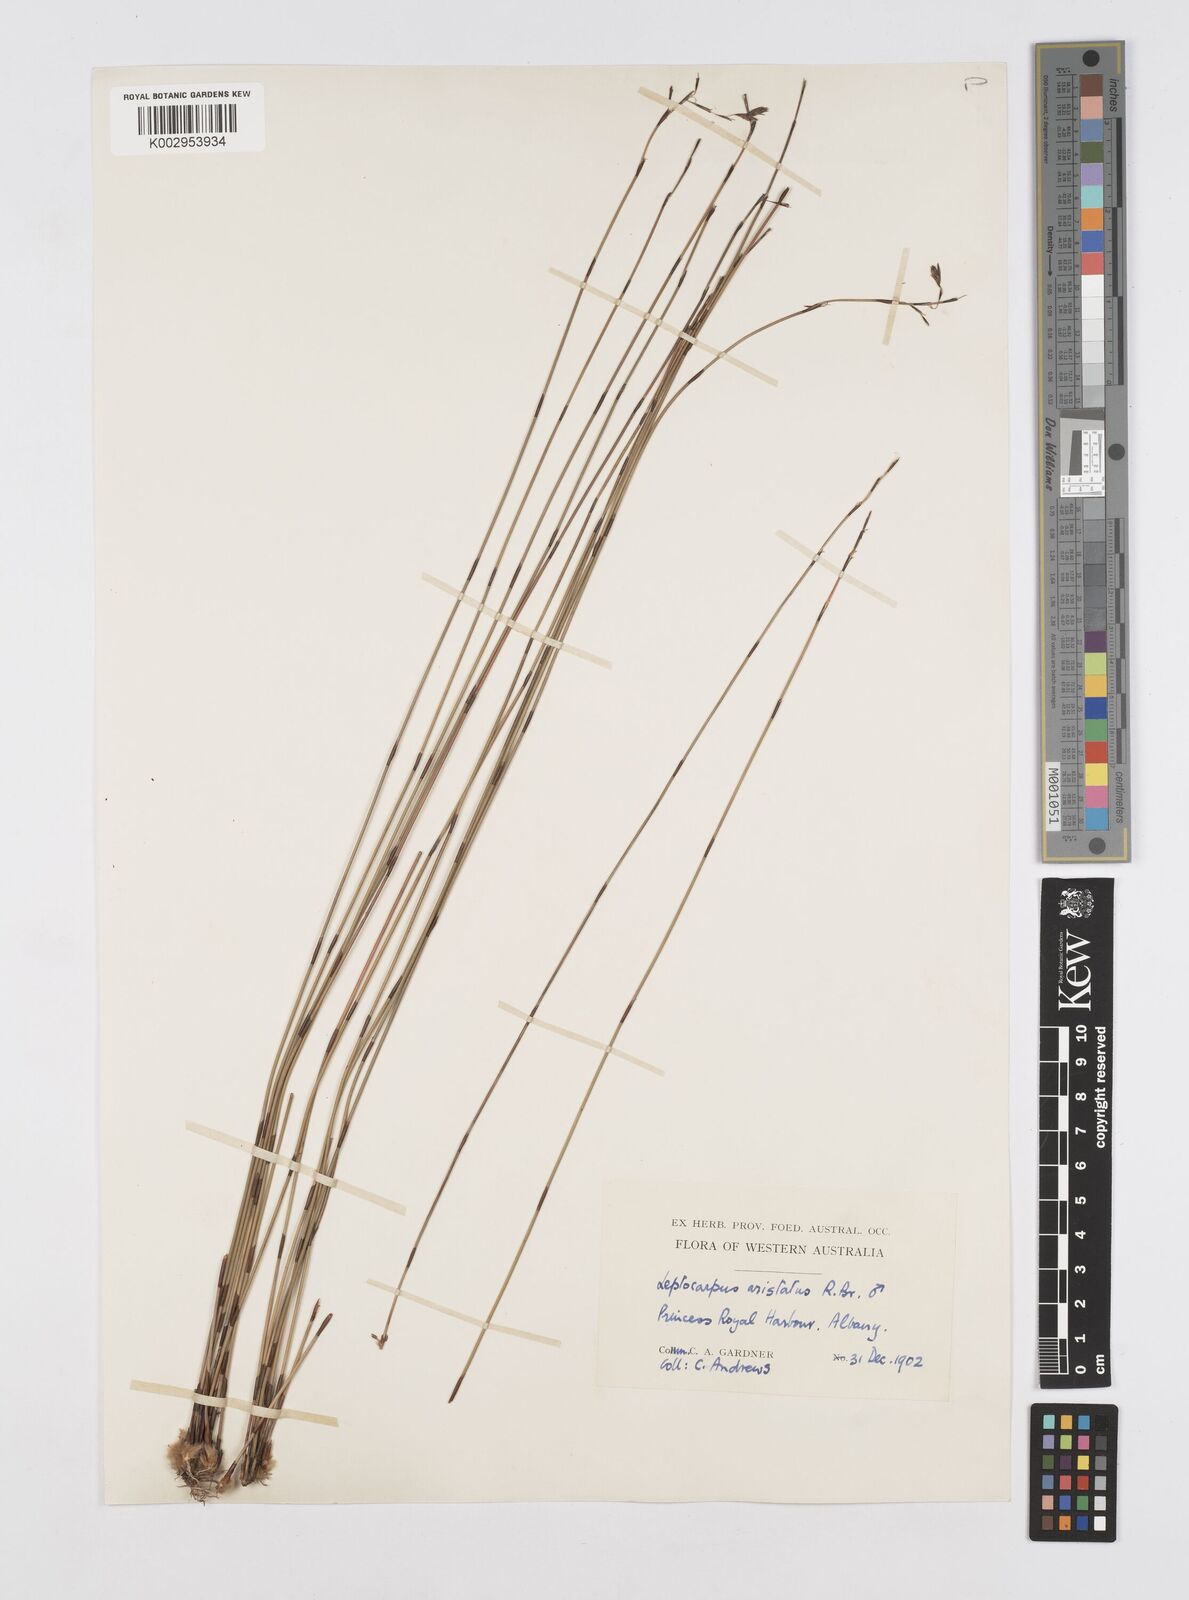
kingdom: Plantae
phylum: Tracheophyta
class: Liliopsida
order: Poales
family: Restionaceae
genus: Chaetanthus
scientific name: Chaetanthus aristatus
